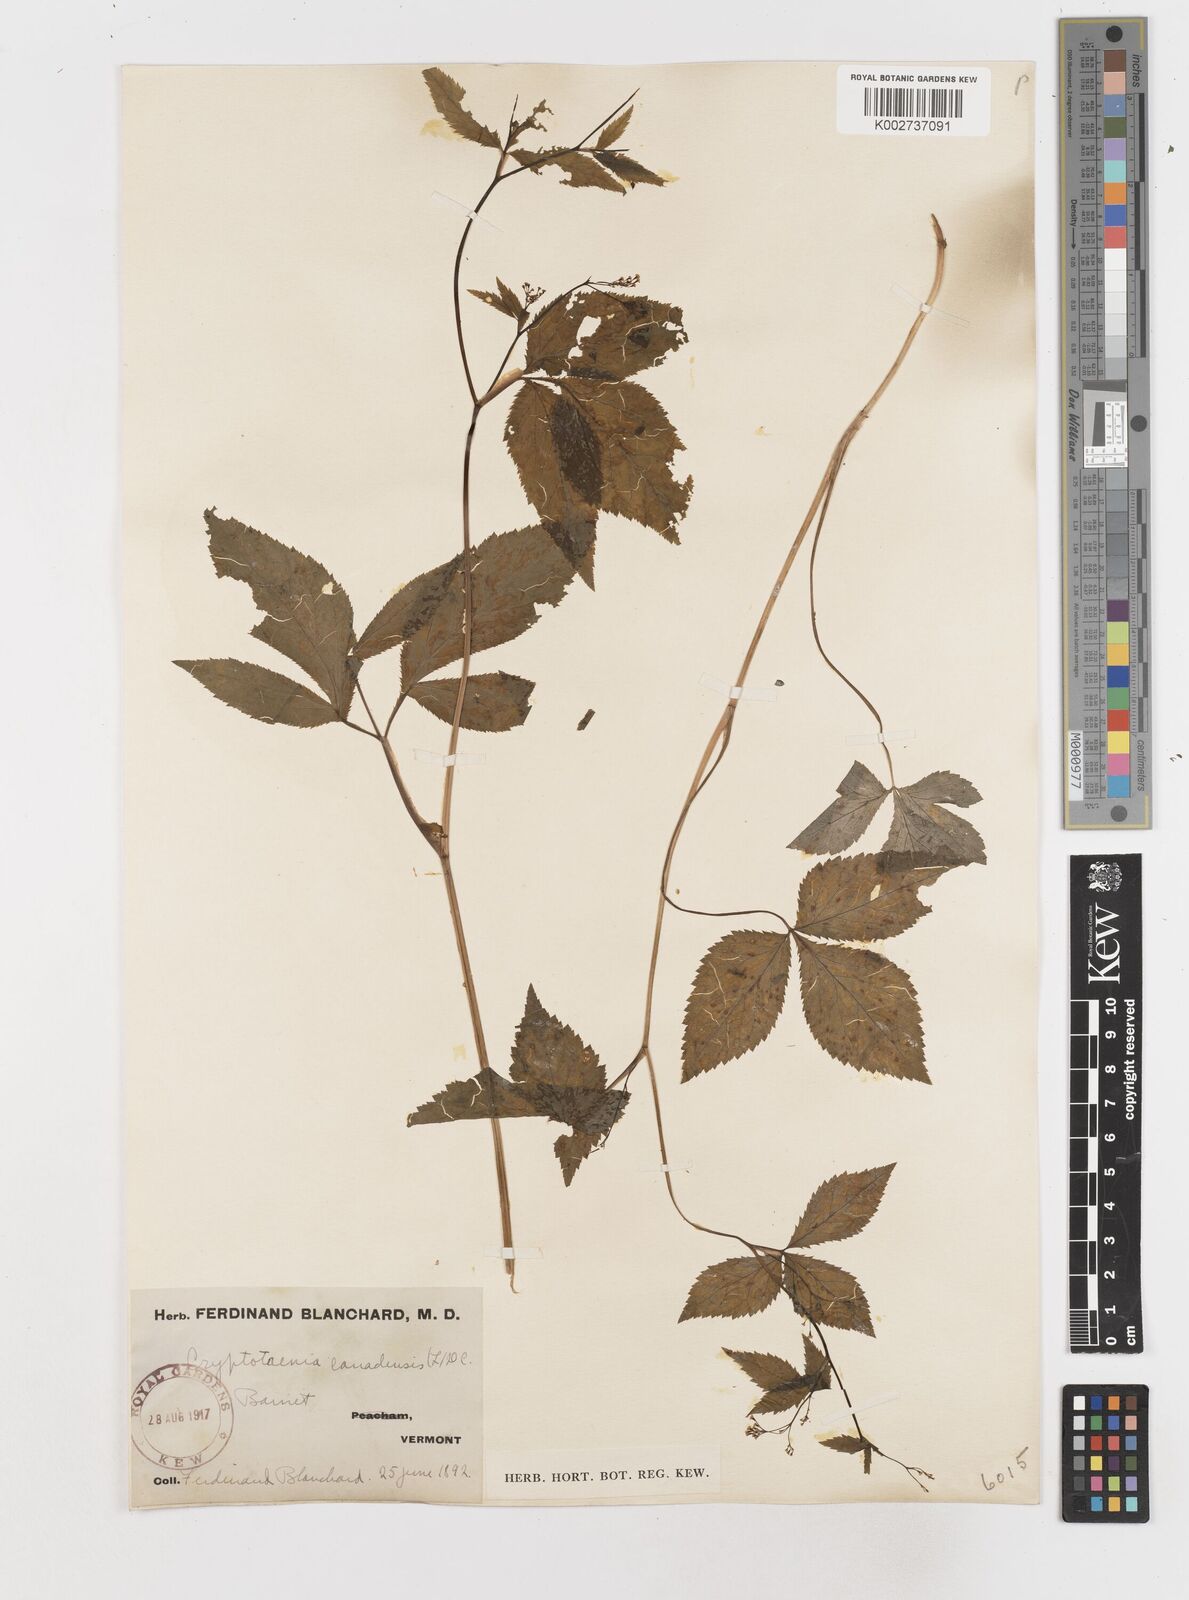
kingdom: Plantae
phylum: Tracheophyta
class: Magnoliopsida
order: Apiales
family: Apiaceae
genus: Cryptotaenia
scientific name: Cryptotaenia canadensis
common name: Honewort
